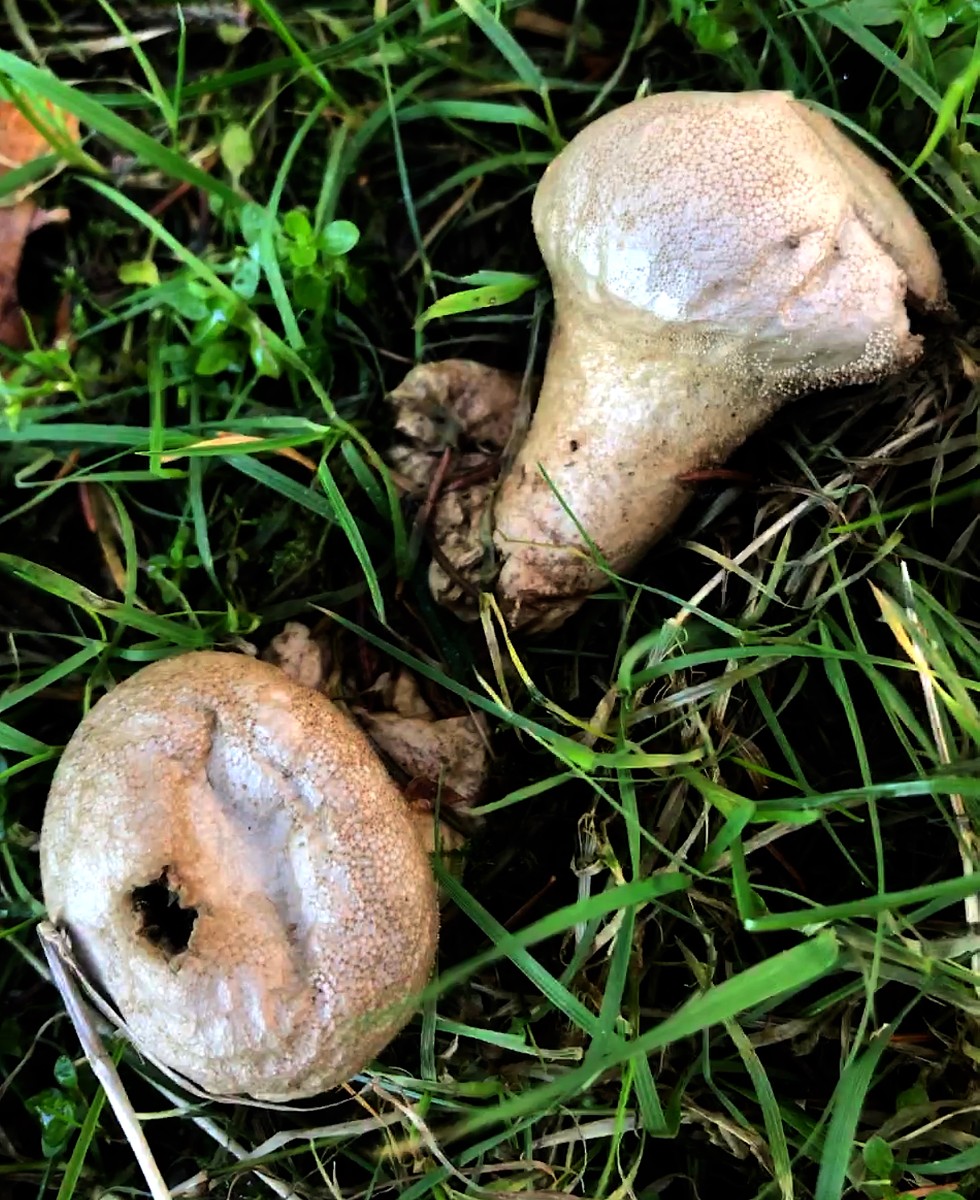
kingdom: Fungi
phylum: Basidiomycota
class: Agaricomycetes
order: Agaricales
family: Lycoperdaceae
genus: Lycoperdon
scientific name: Lycoperdon excipuliforme
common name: højstokket støvbold
